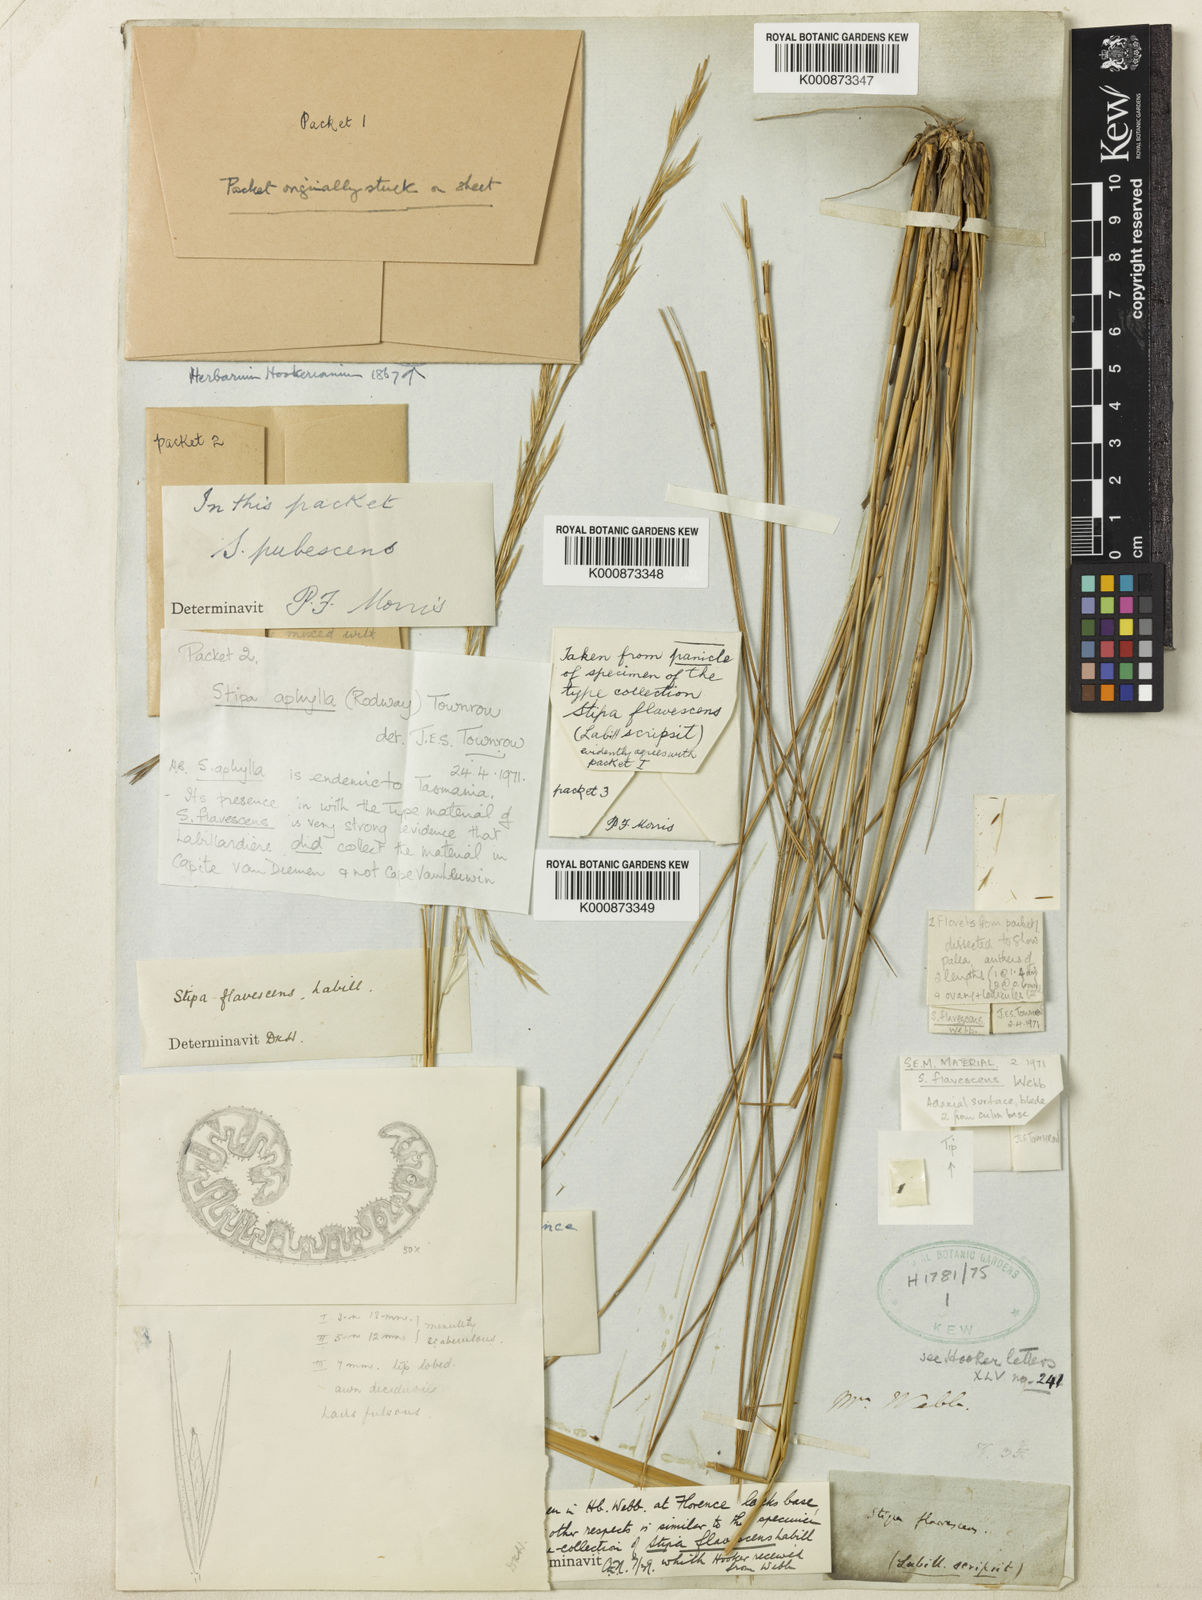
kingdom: Plantae
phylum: Tracheophyta
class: Liliopsida
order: Poales
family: Poaceae
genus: Austrostipa
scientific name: Austrostipa flavescens
